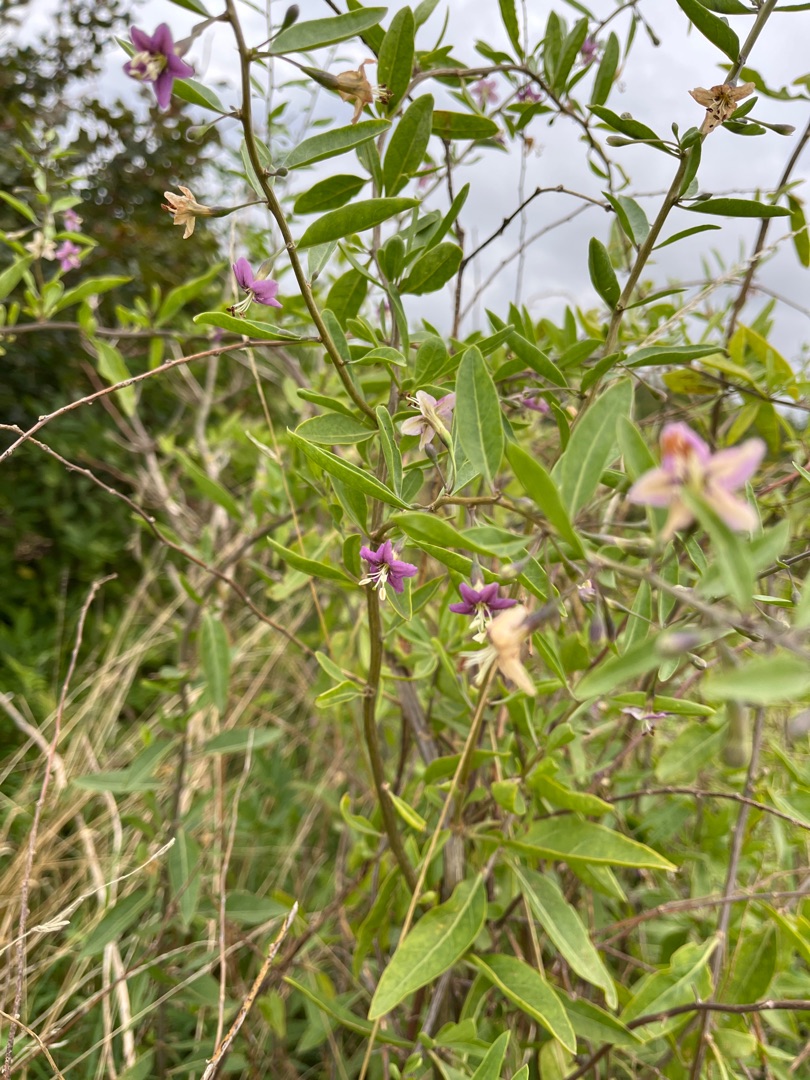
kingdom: Plantae
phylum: Tracheophyta
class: Magnoliopsida
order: Solanales
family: Solanaceae
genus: Lycium
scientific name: Lycium barbarum
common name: Bukketorn
